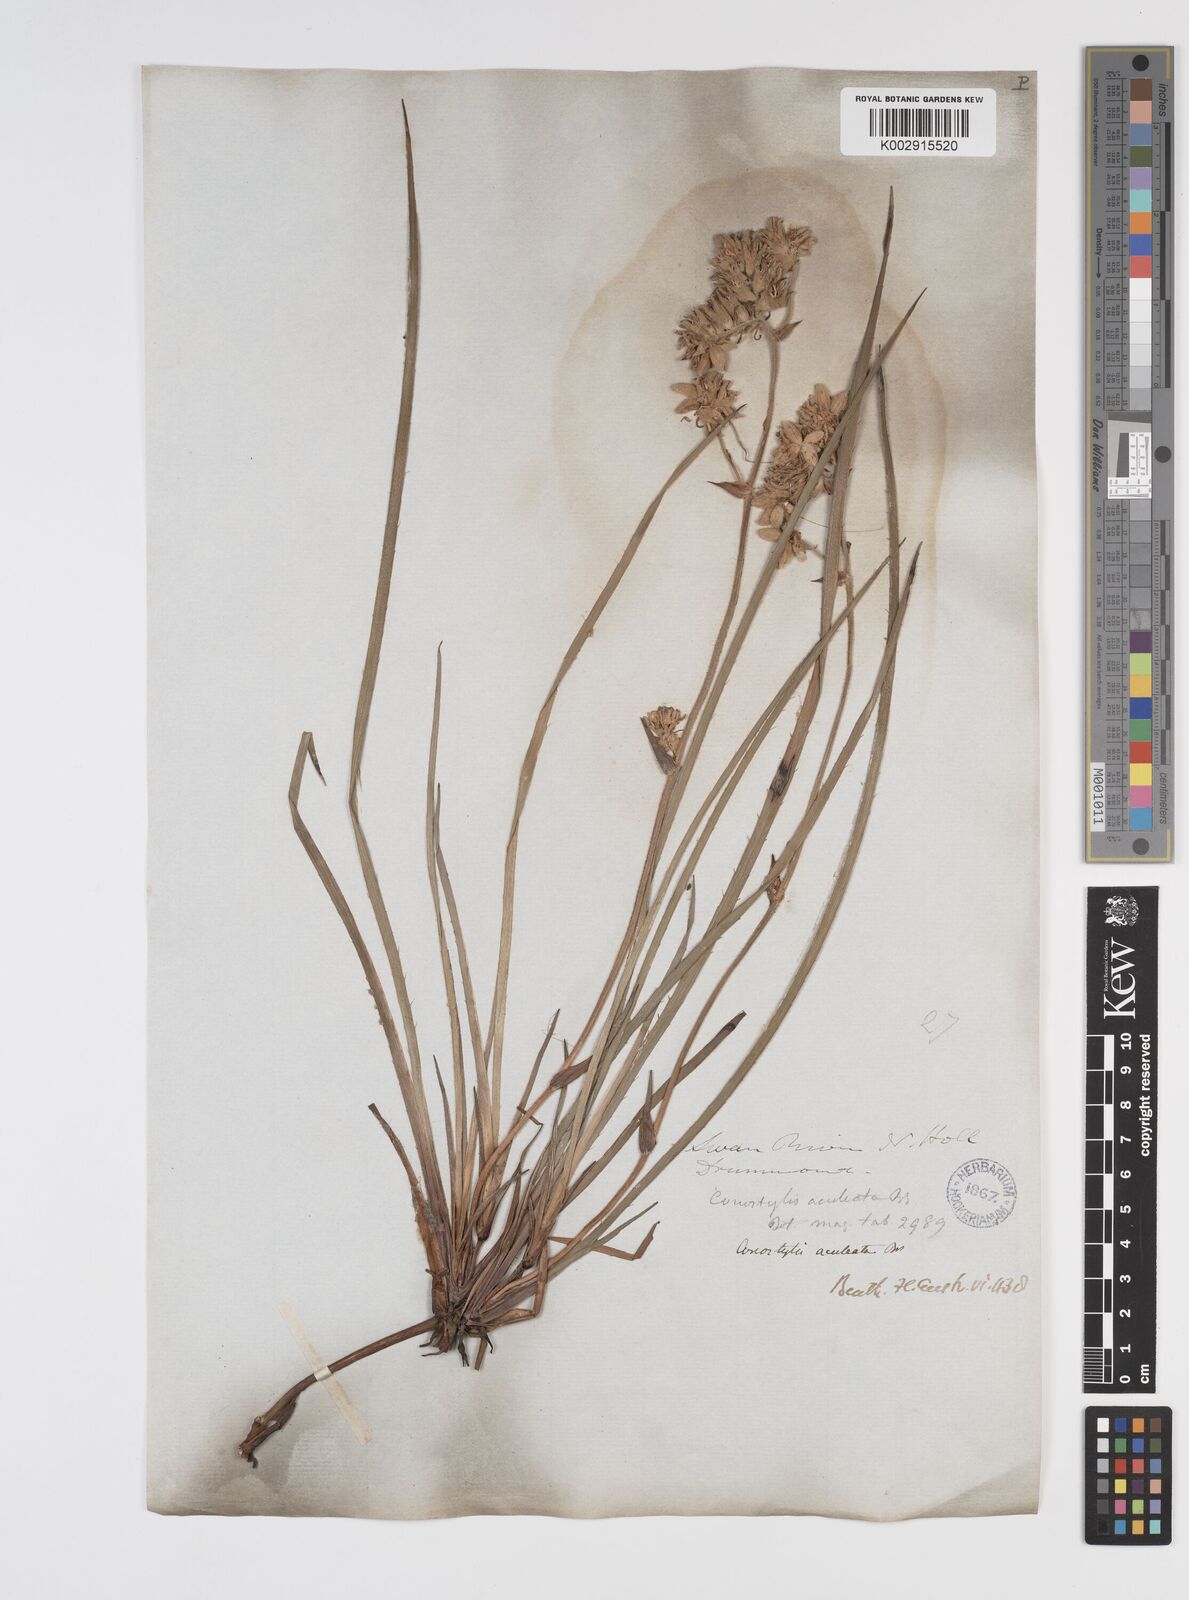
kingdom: Plantae
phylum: Tracheophyta
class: Liliopsida
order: Commelinales
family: Haemodoraceae
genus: Conostylis
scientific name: Conostylis aculeata
